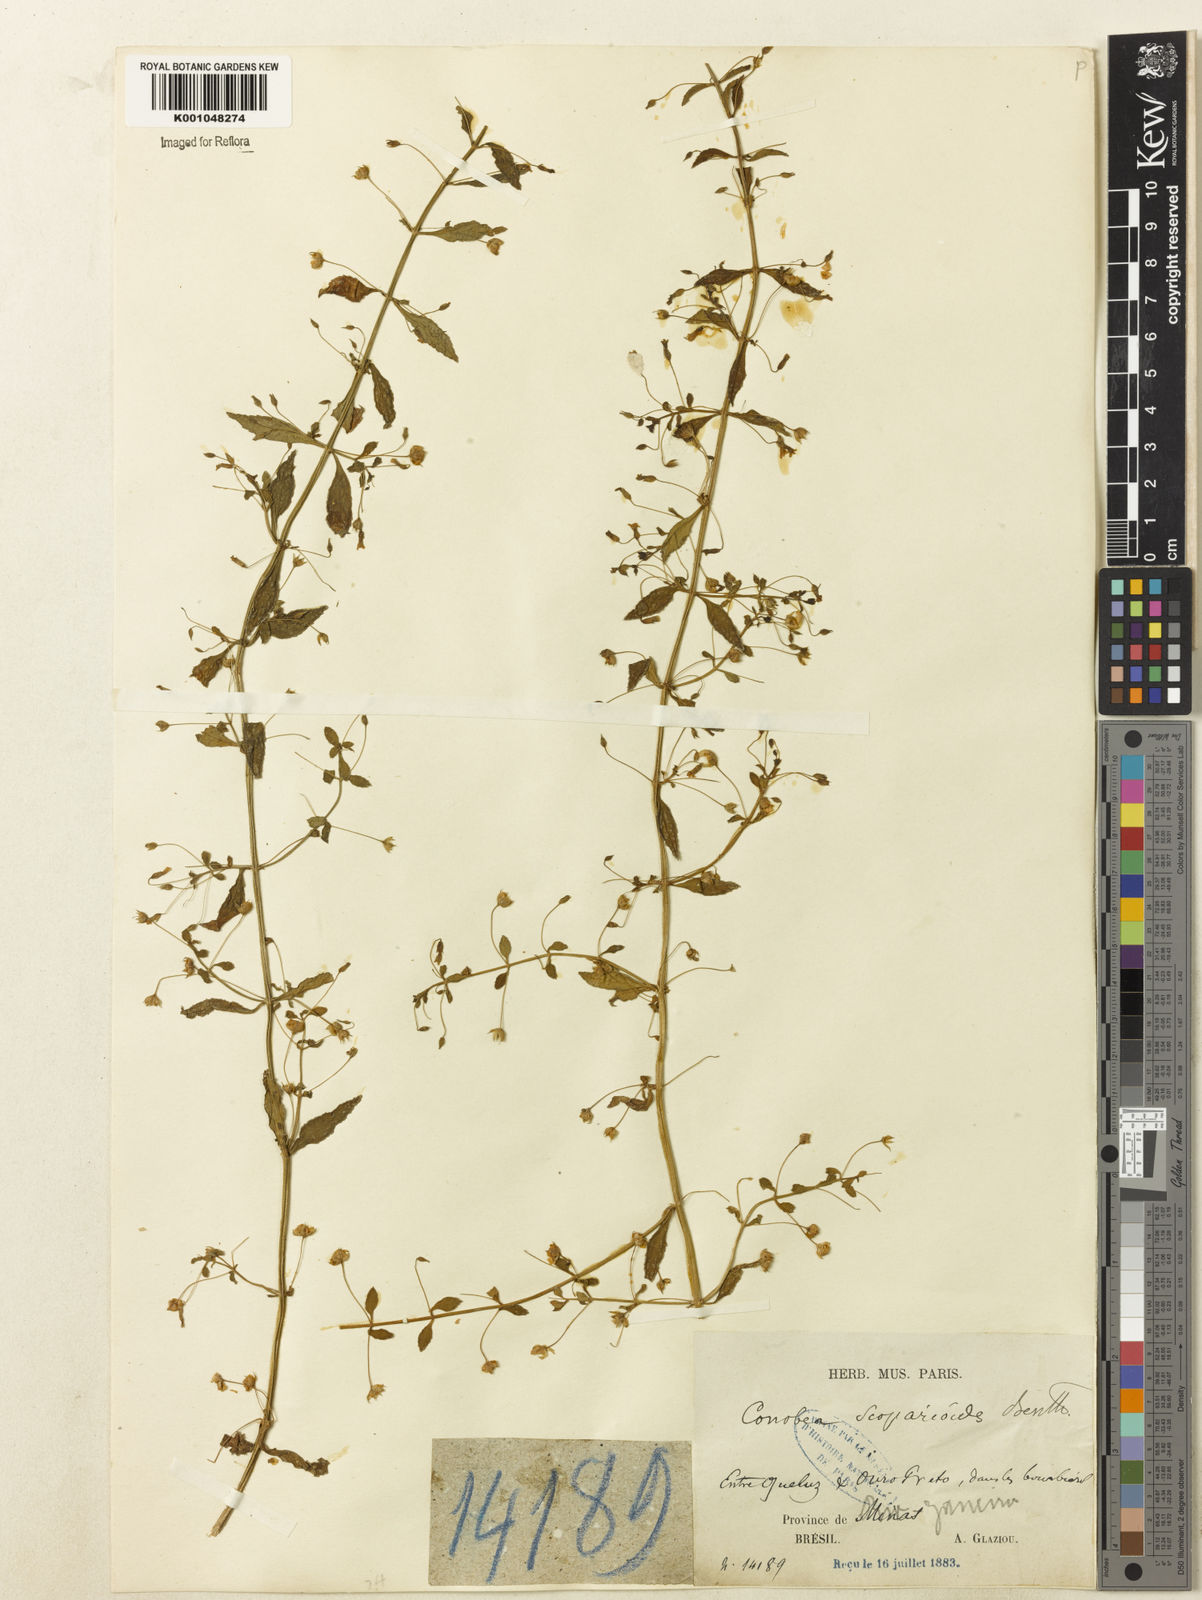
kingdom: Plantae
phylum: Tracheophyta
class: Magnoliopsida
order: Lamiales
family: Plantaginaceae
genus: Conobea
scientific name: Conobea scoparioides
